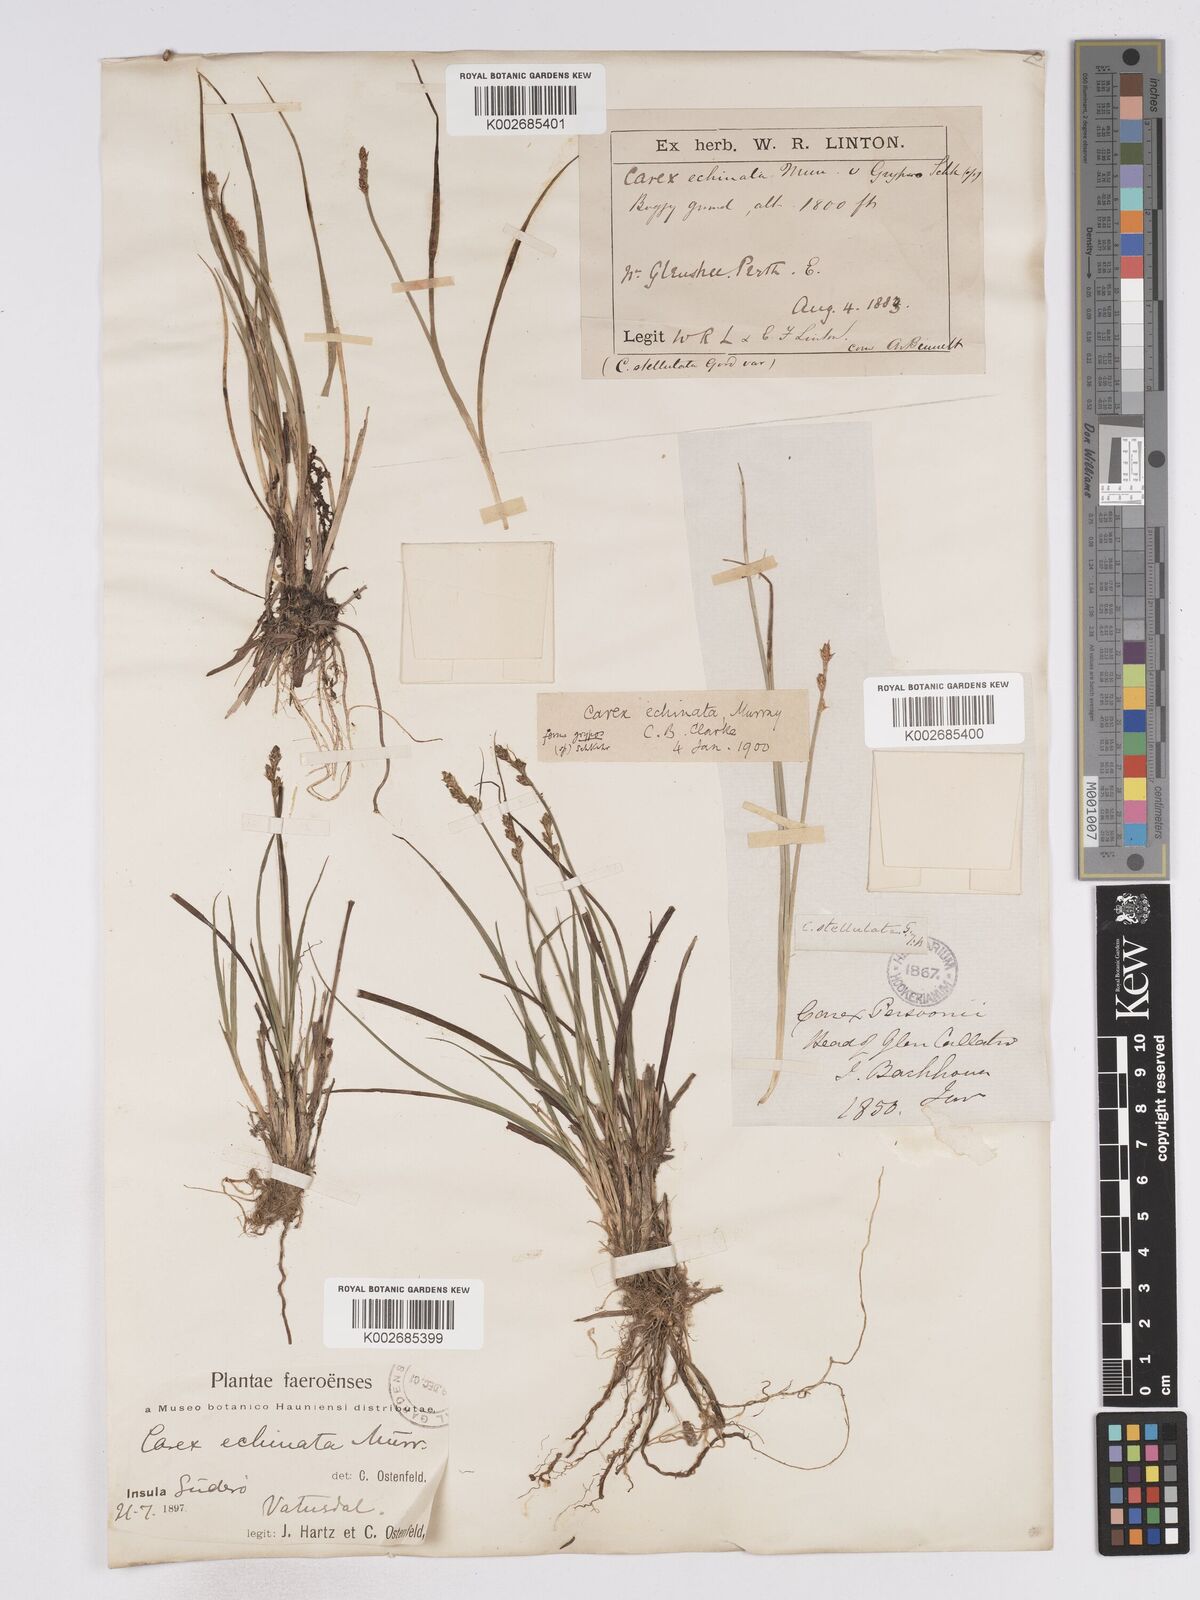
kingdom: Plantae
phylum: Tracheophyta
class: Liliopsida
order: Poales
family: Cyperaceae
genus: Carex
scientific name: Carex echinata
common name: Star sedge
